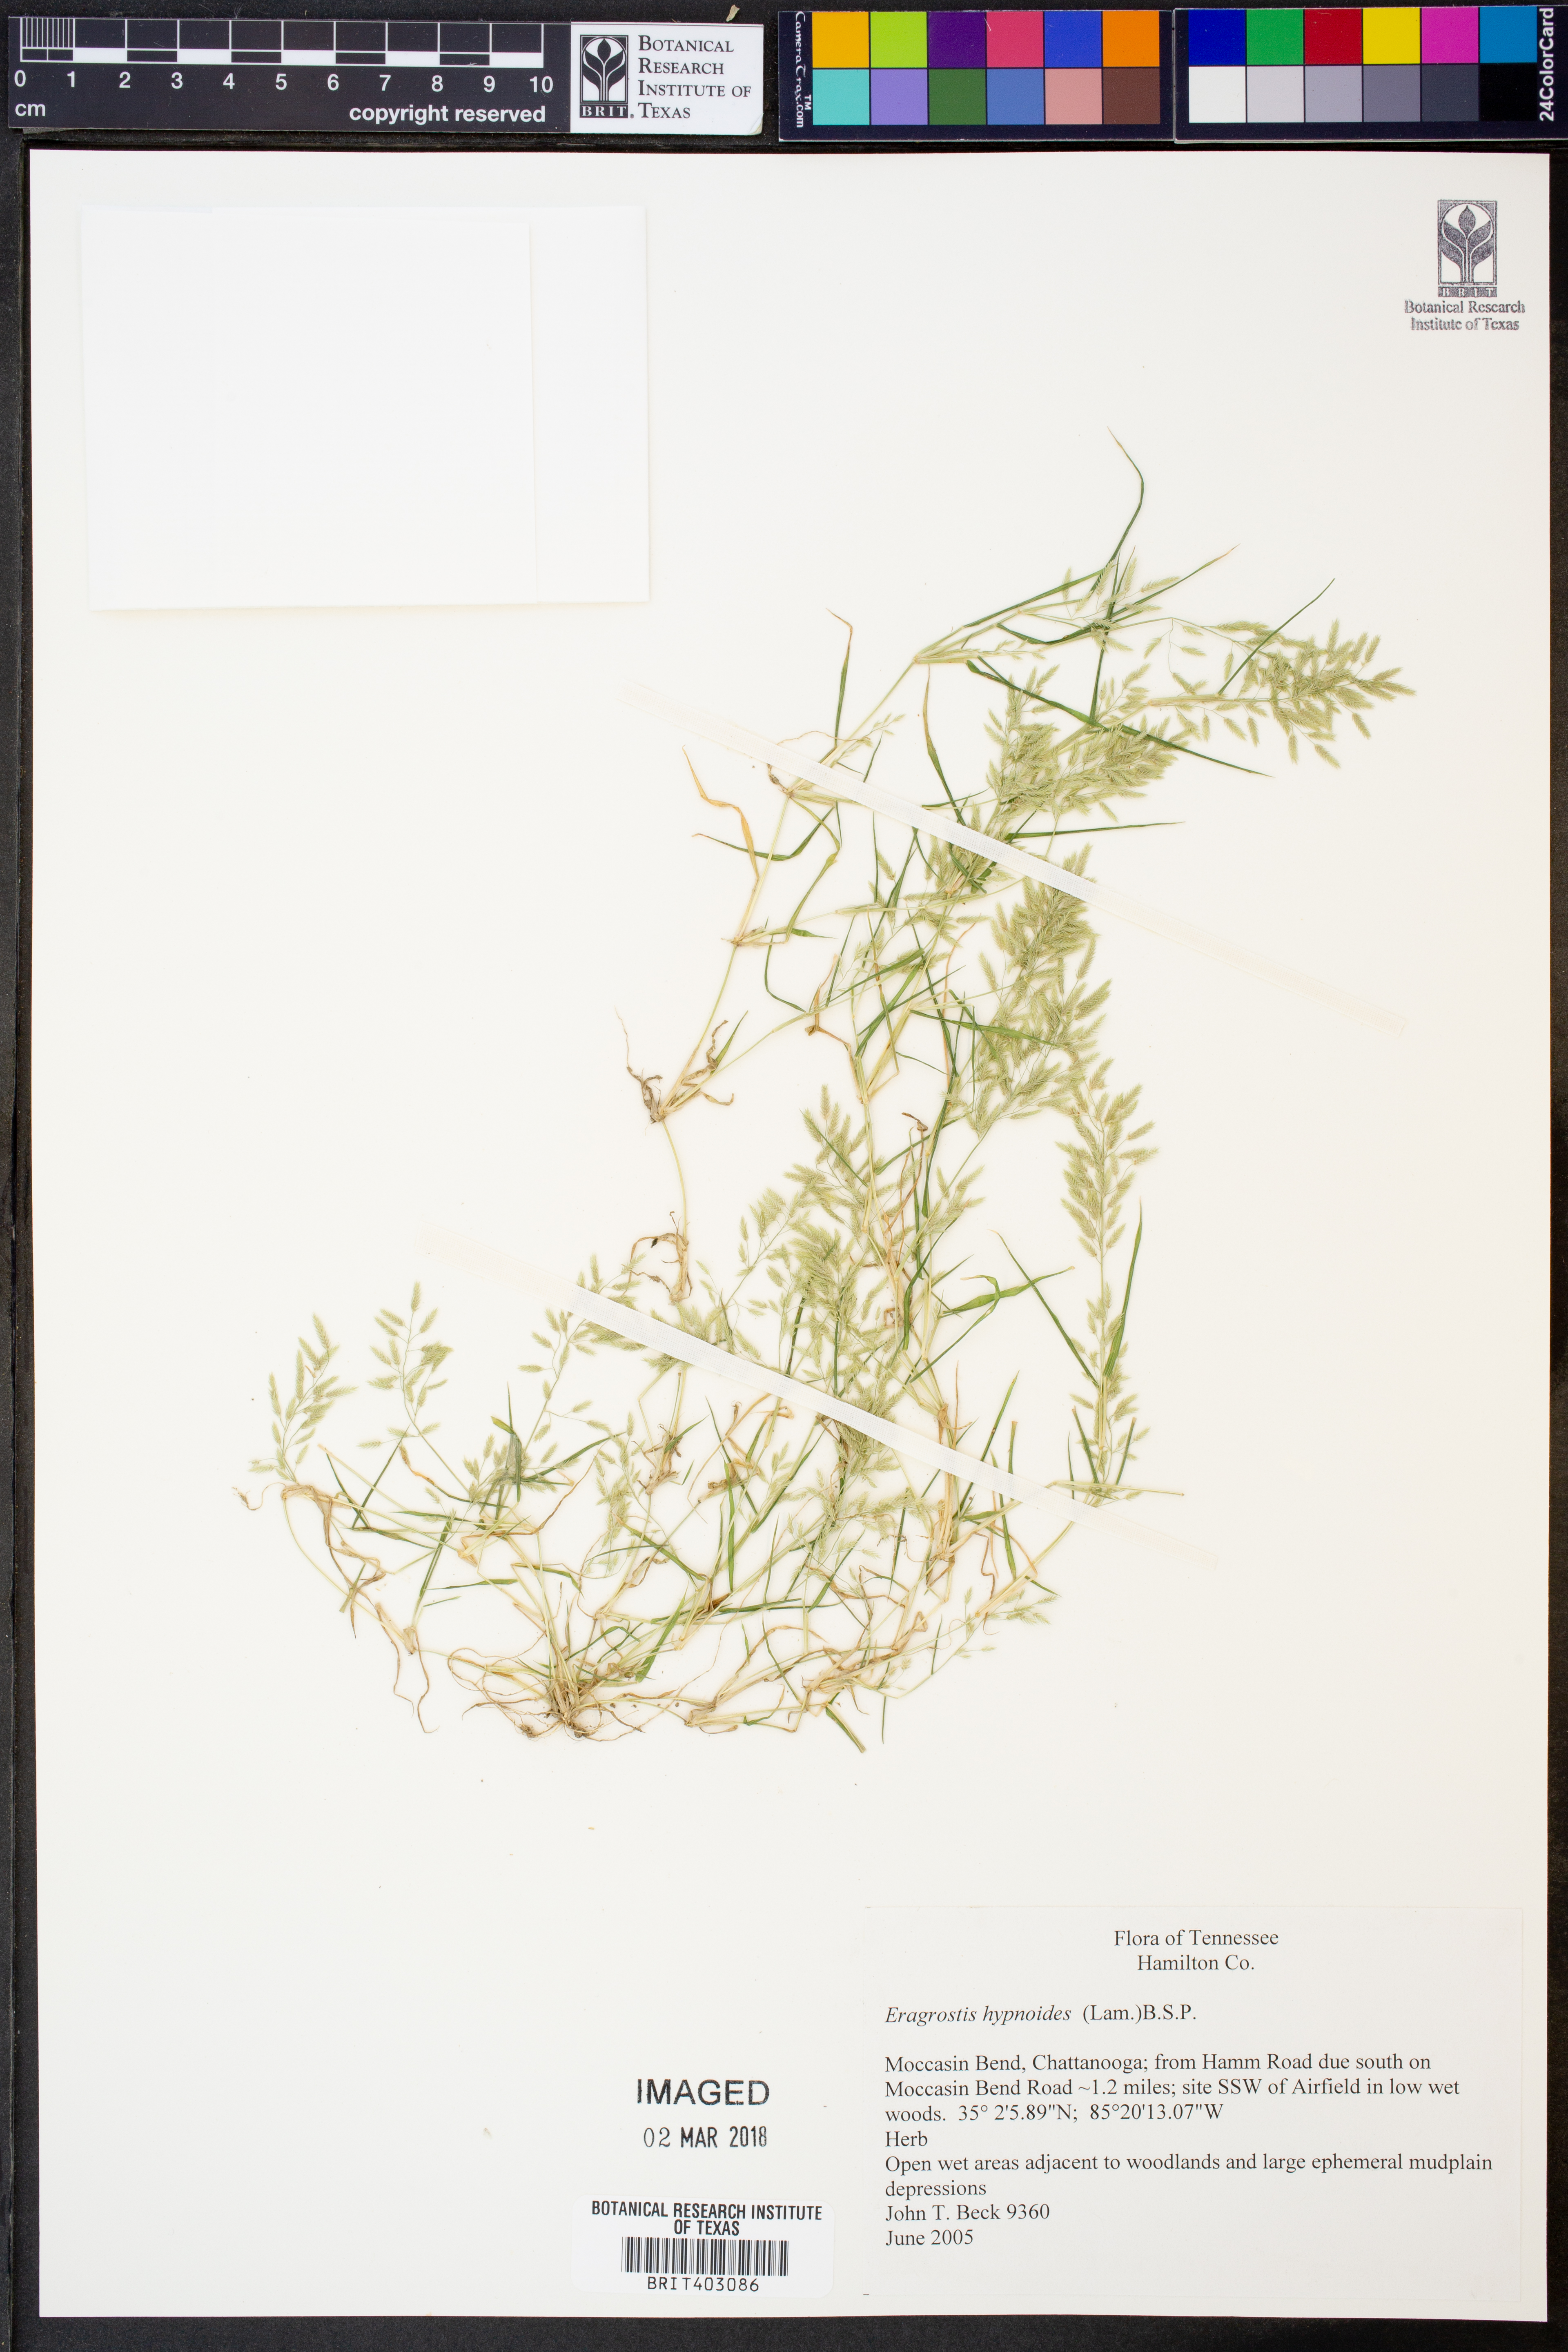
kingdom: Plantae
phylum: Tracheophyta
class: Liliopsida
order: Poales
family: Poaceae
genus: Eragrostis
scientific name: Eragrostis hypnoides
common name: Creeping love grass
